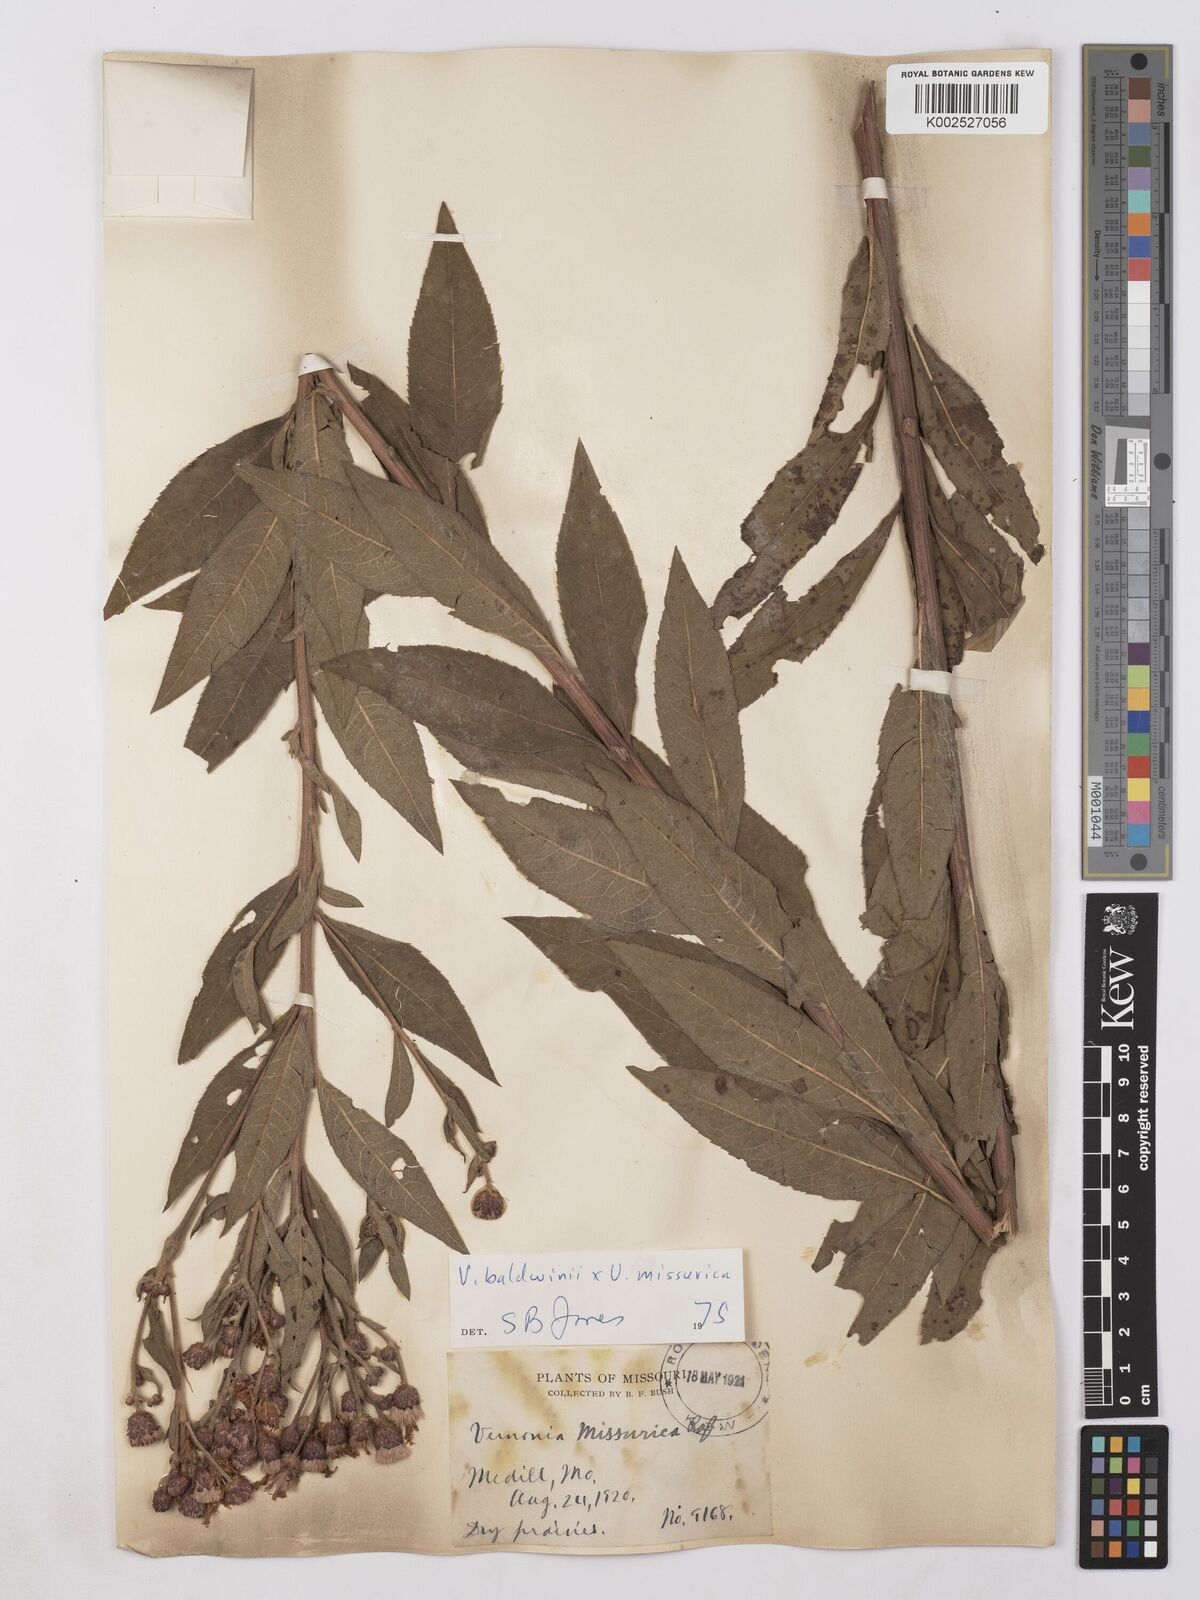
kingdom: Plantae
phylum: Tracheophyta
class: Magnoliopsida
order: Asterales
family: Asteraceae
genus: Vernonia
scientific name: Vernonia baldwinii
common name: Western ironweed
